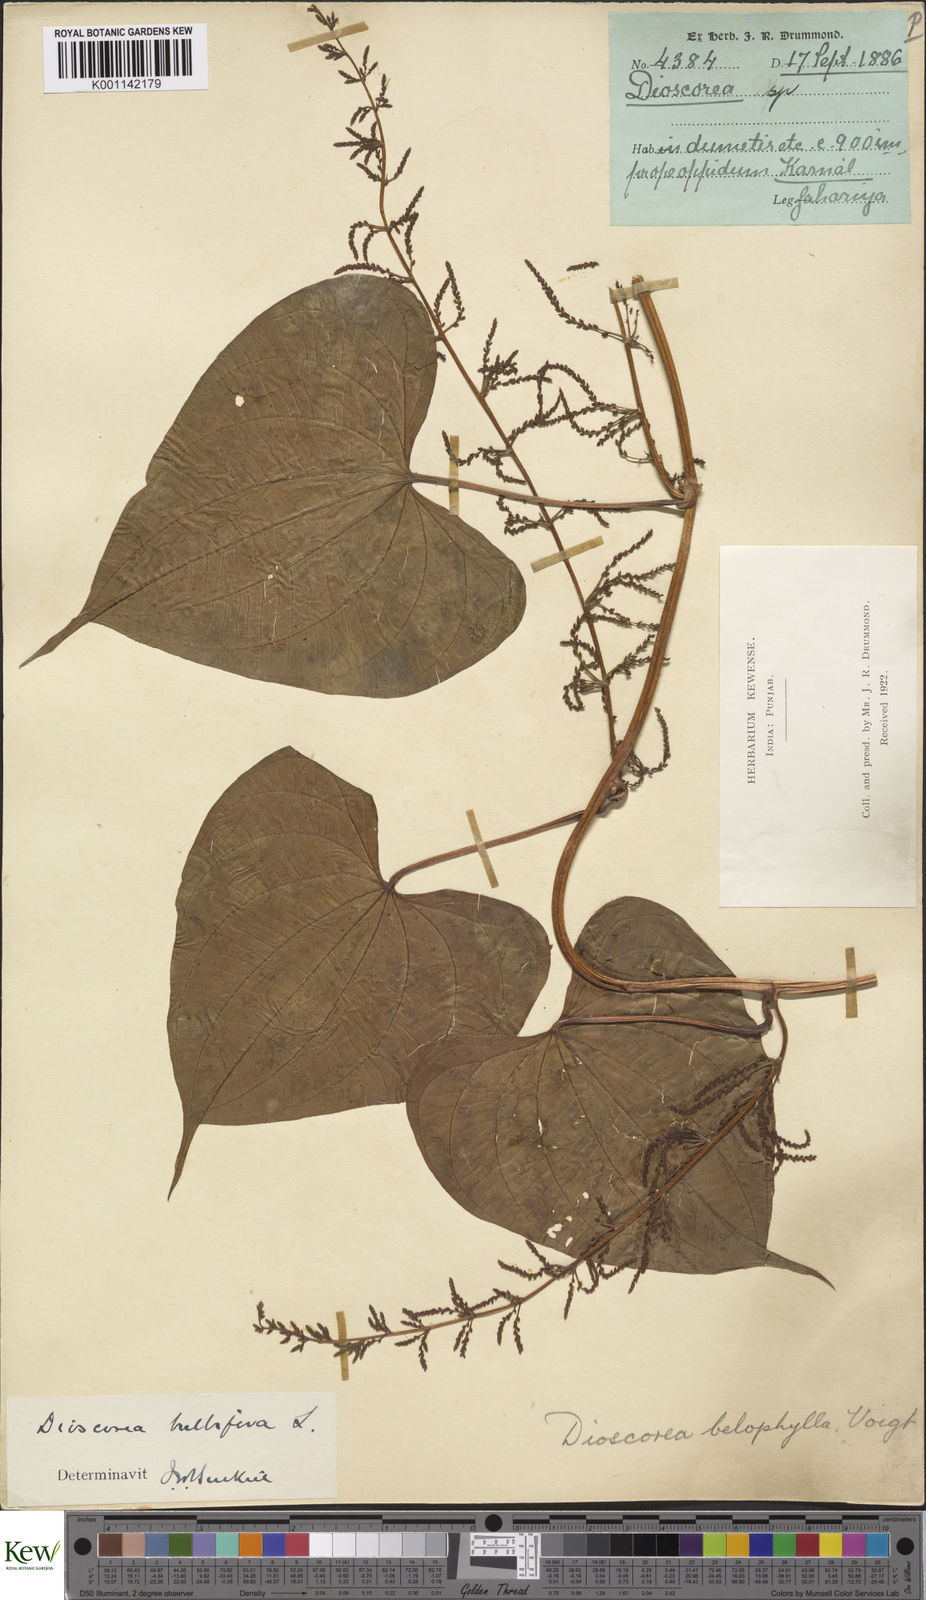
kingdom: Plantae
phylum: Tracheophyta
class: Liliopsida
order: Dioscoreales
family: Dioscoreaceae
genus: Dioscorea
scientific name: Dioscorea bulbifera
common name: Air yam
